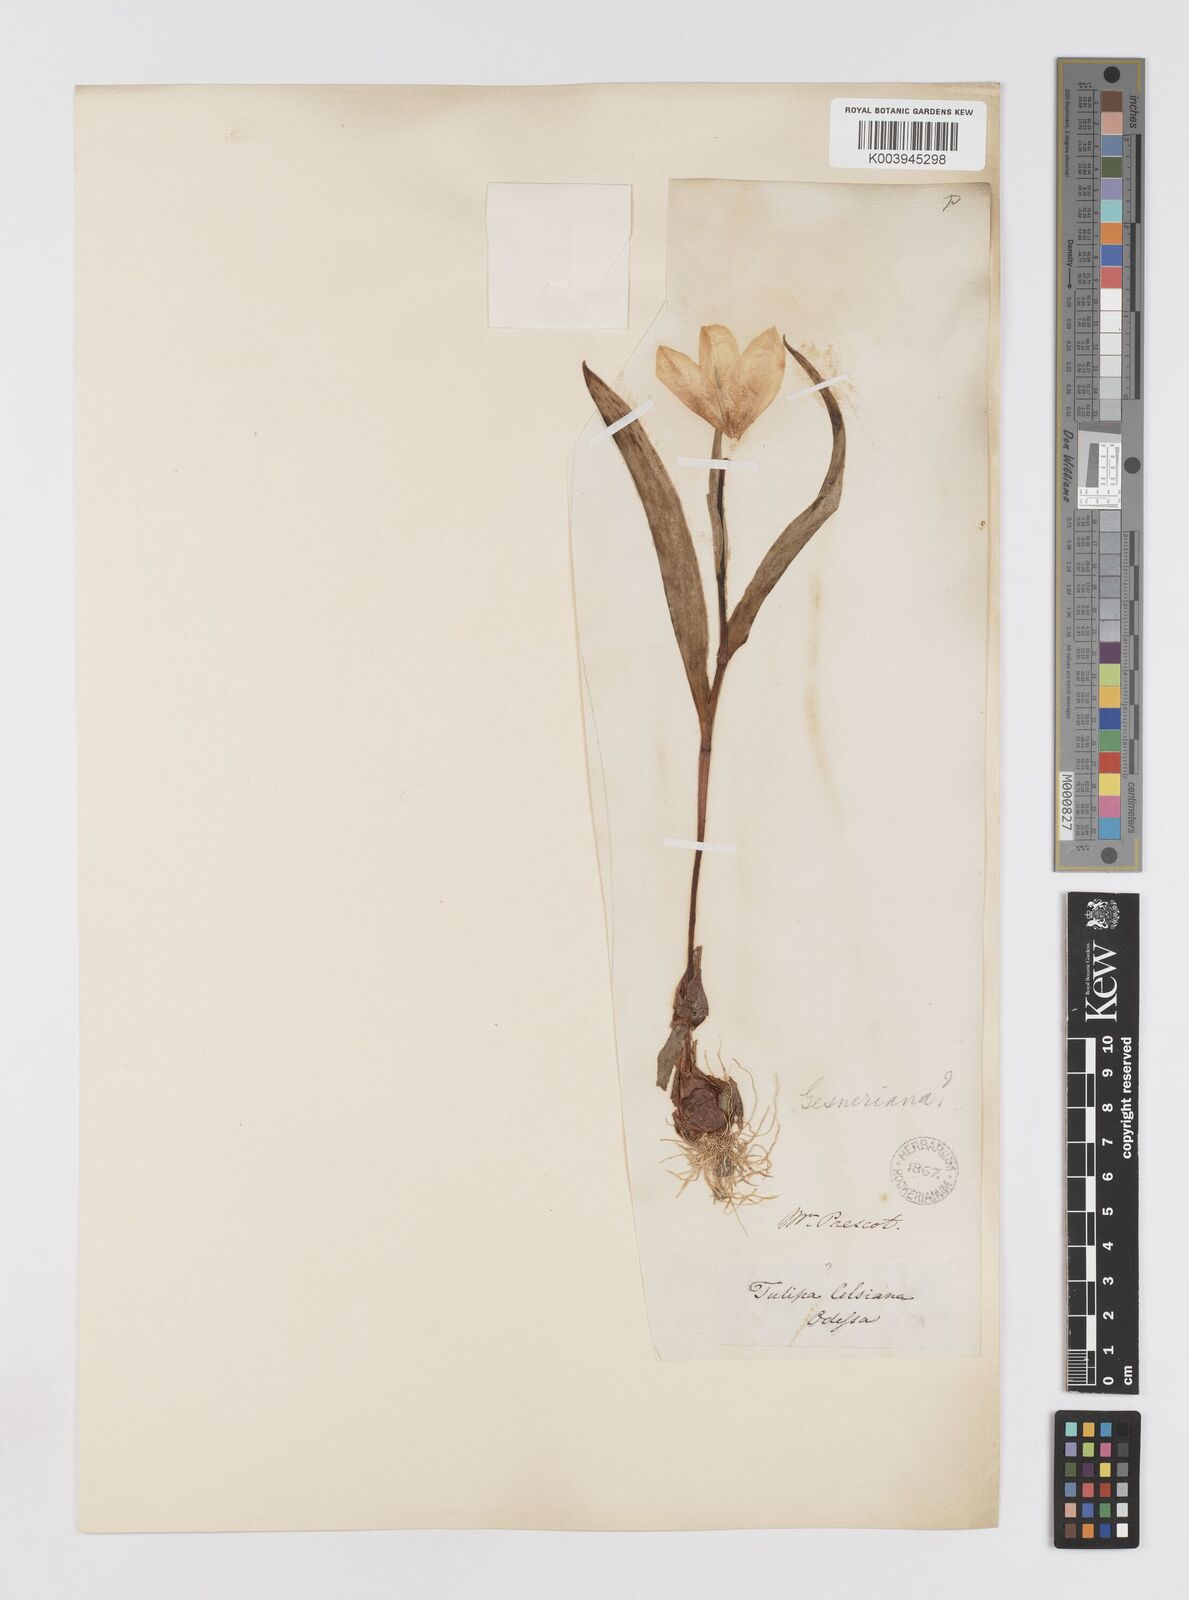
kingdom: Plantae
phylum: Tracheophyta
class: Liliopsida
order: Liliales
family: Liliaceae
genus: Tulipa
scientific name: Tulipa gesneriana
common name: Garden tulip
